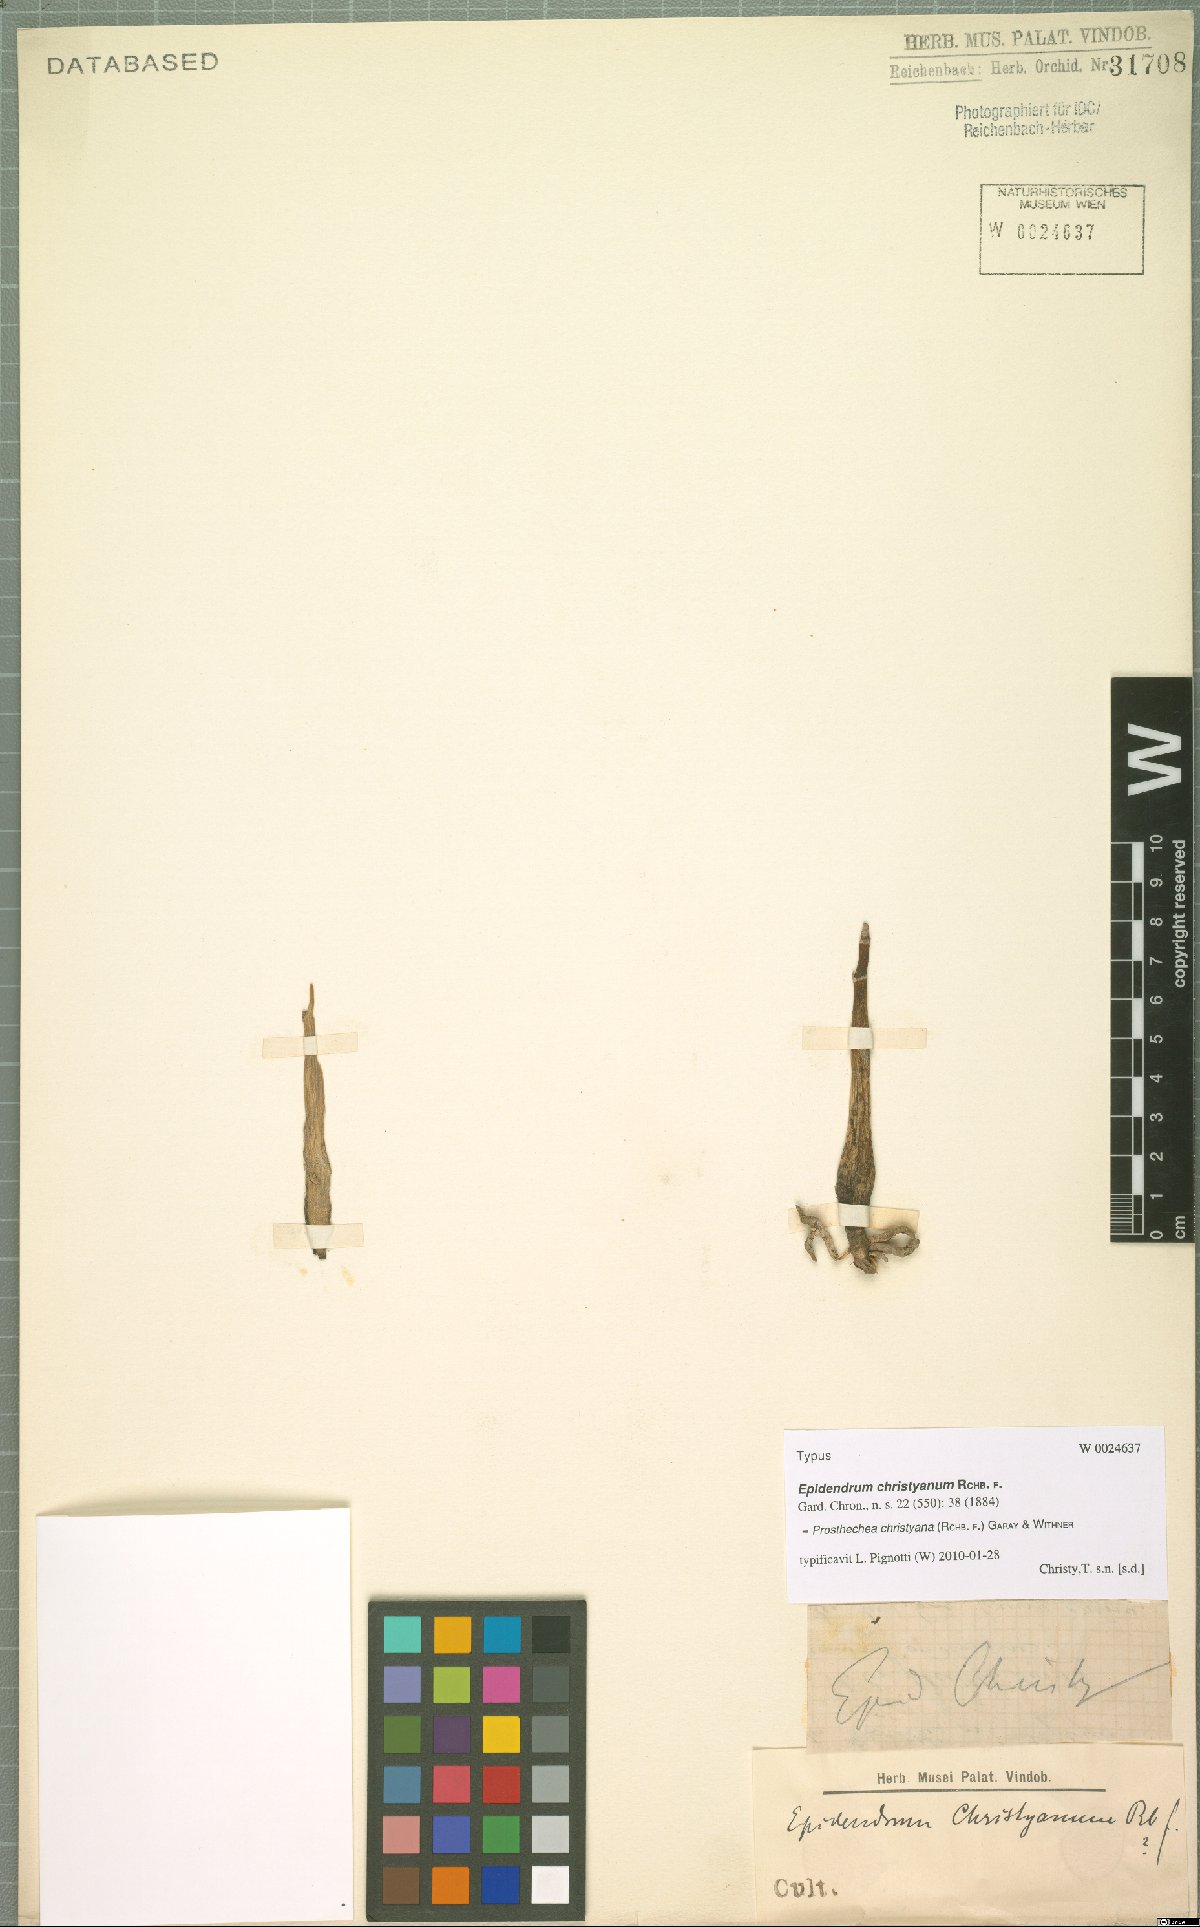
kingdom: Plantae
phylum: Tracheophyta
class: Liliopsida
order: Asparagales
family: Orchidaceae
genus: Prosthechea
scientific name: Prosthechea christyana
